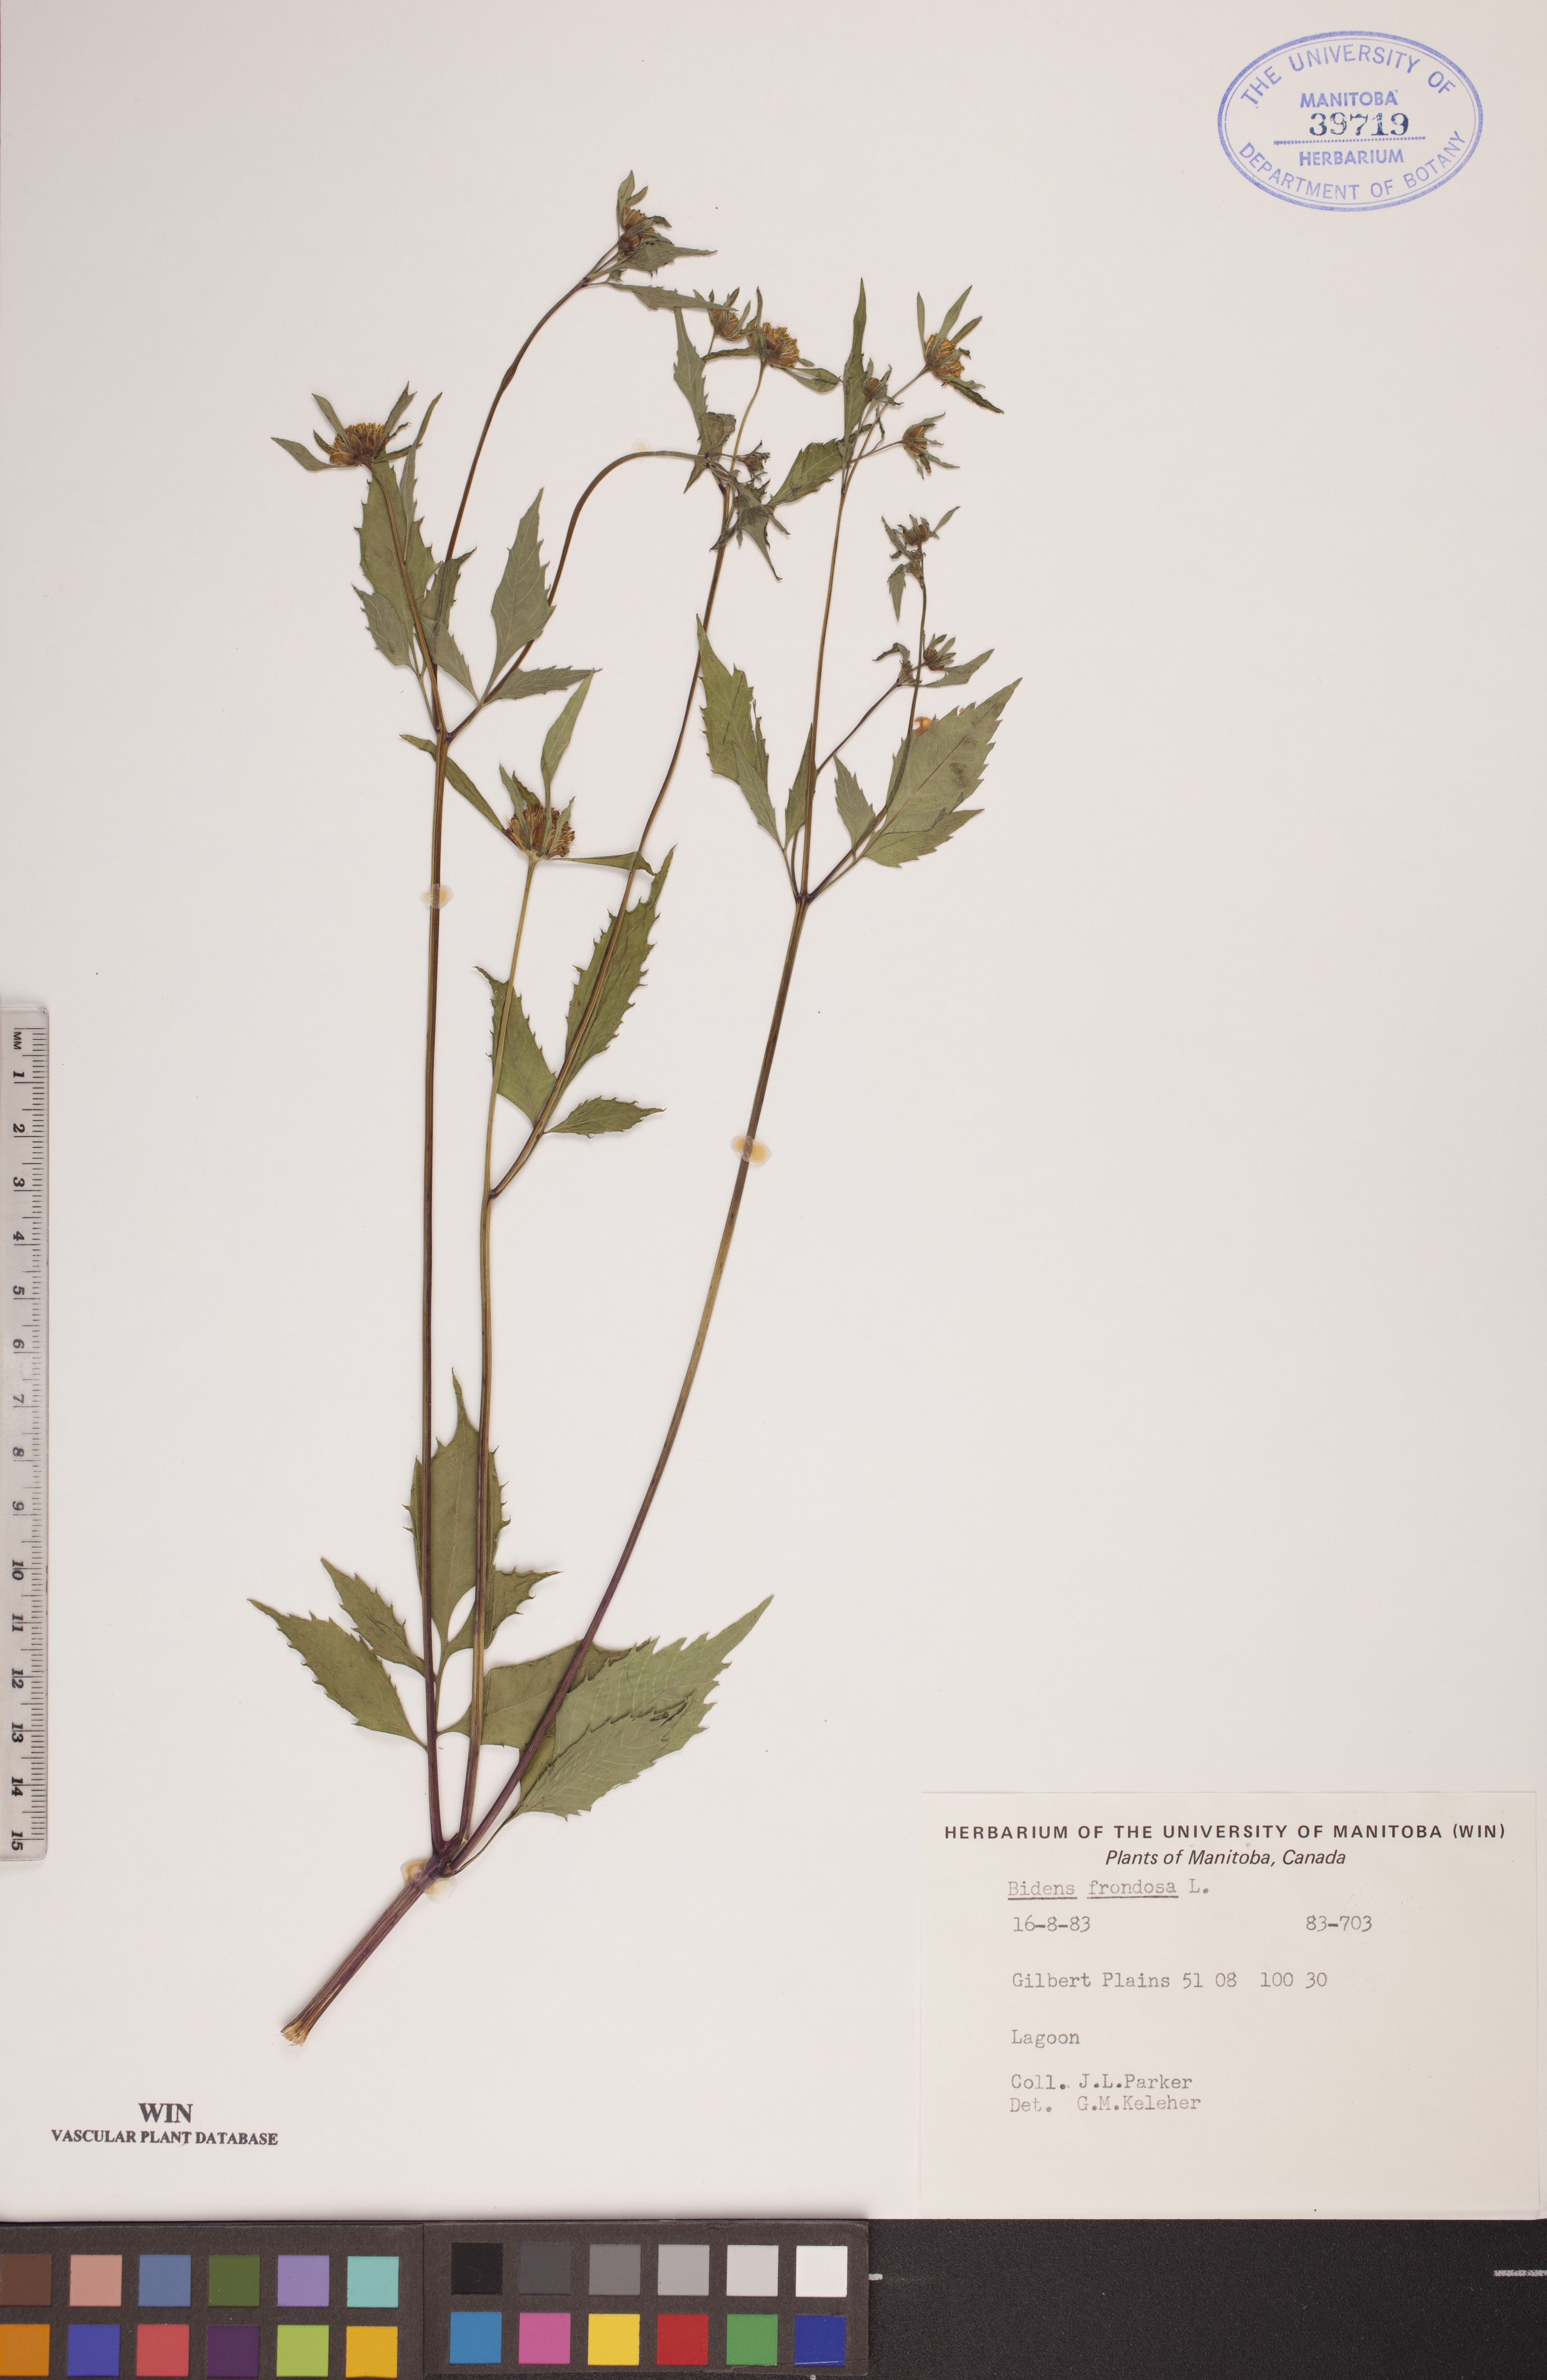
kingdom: Plantae
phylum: Tracheophyta
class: Magnoliopsida
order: Asterales
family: Asteraceae
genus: Bidens
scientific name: Bidens frondosa
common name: Beggarticks
